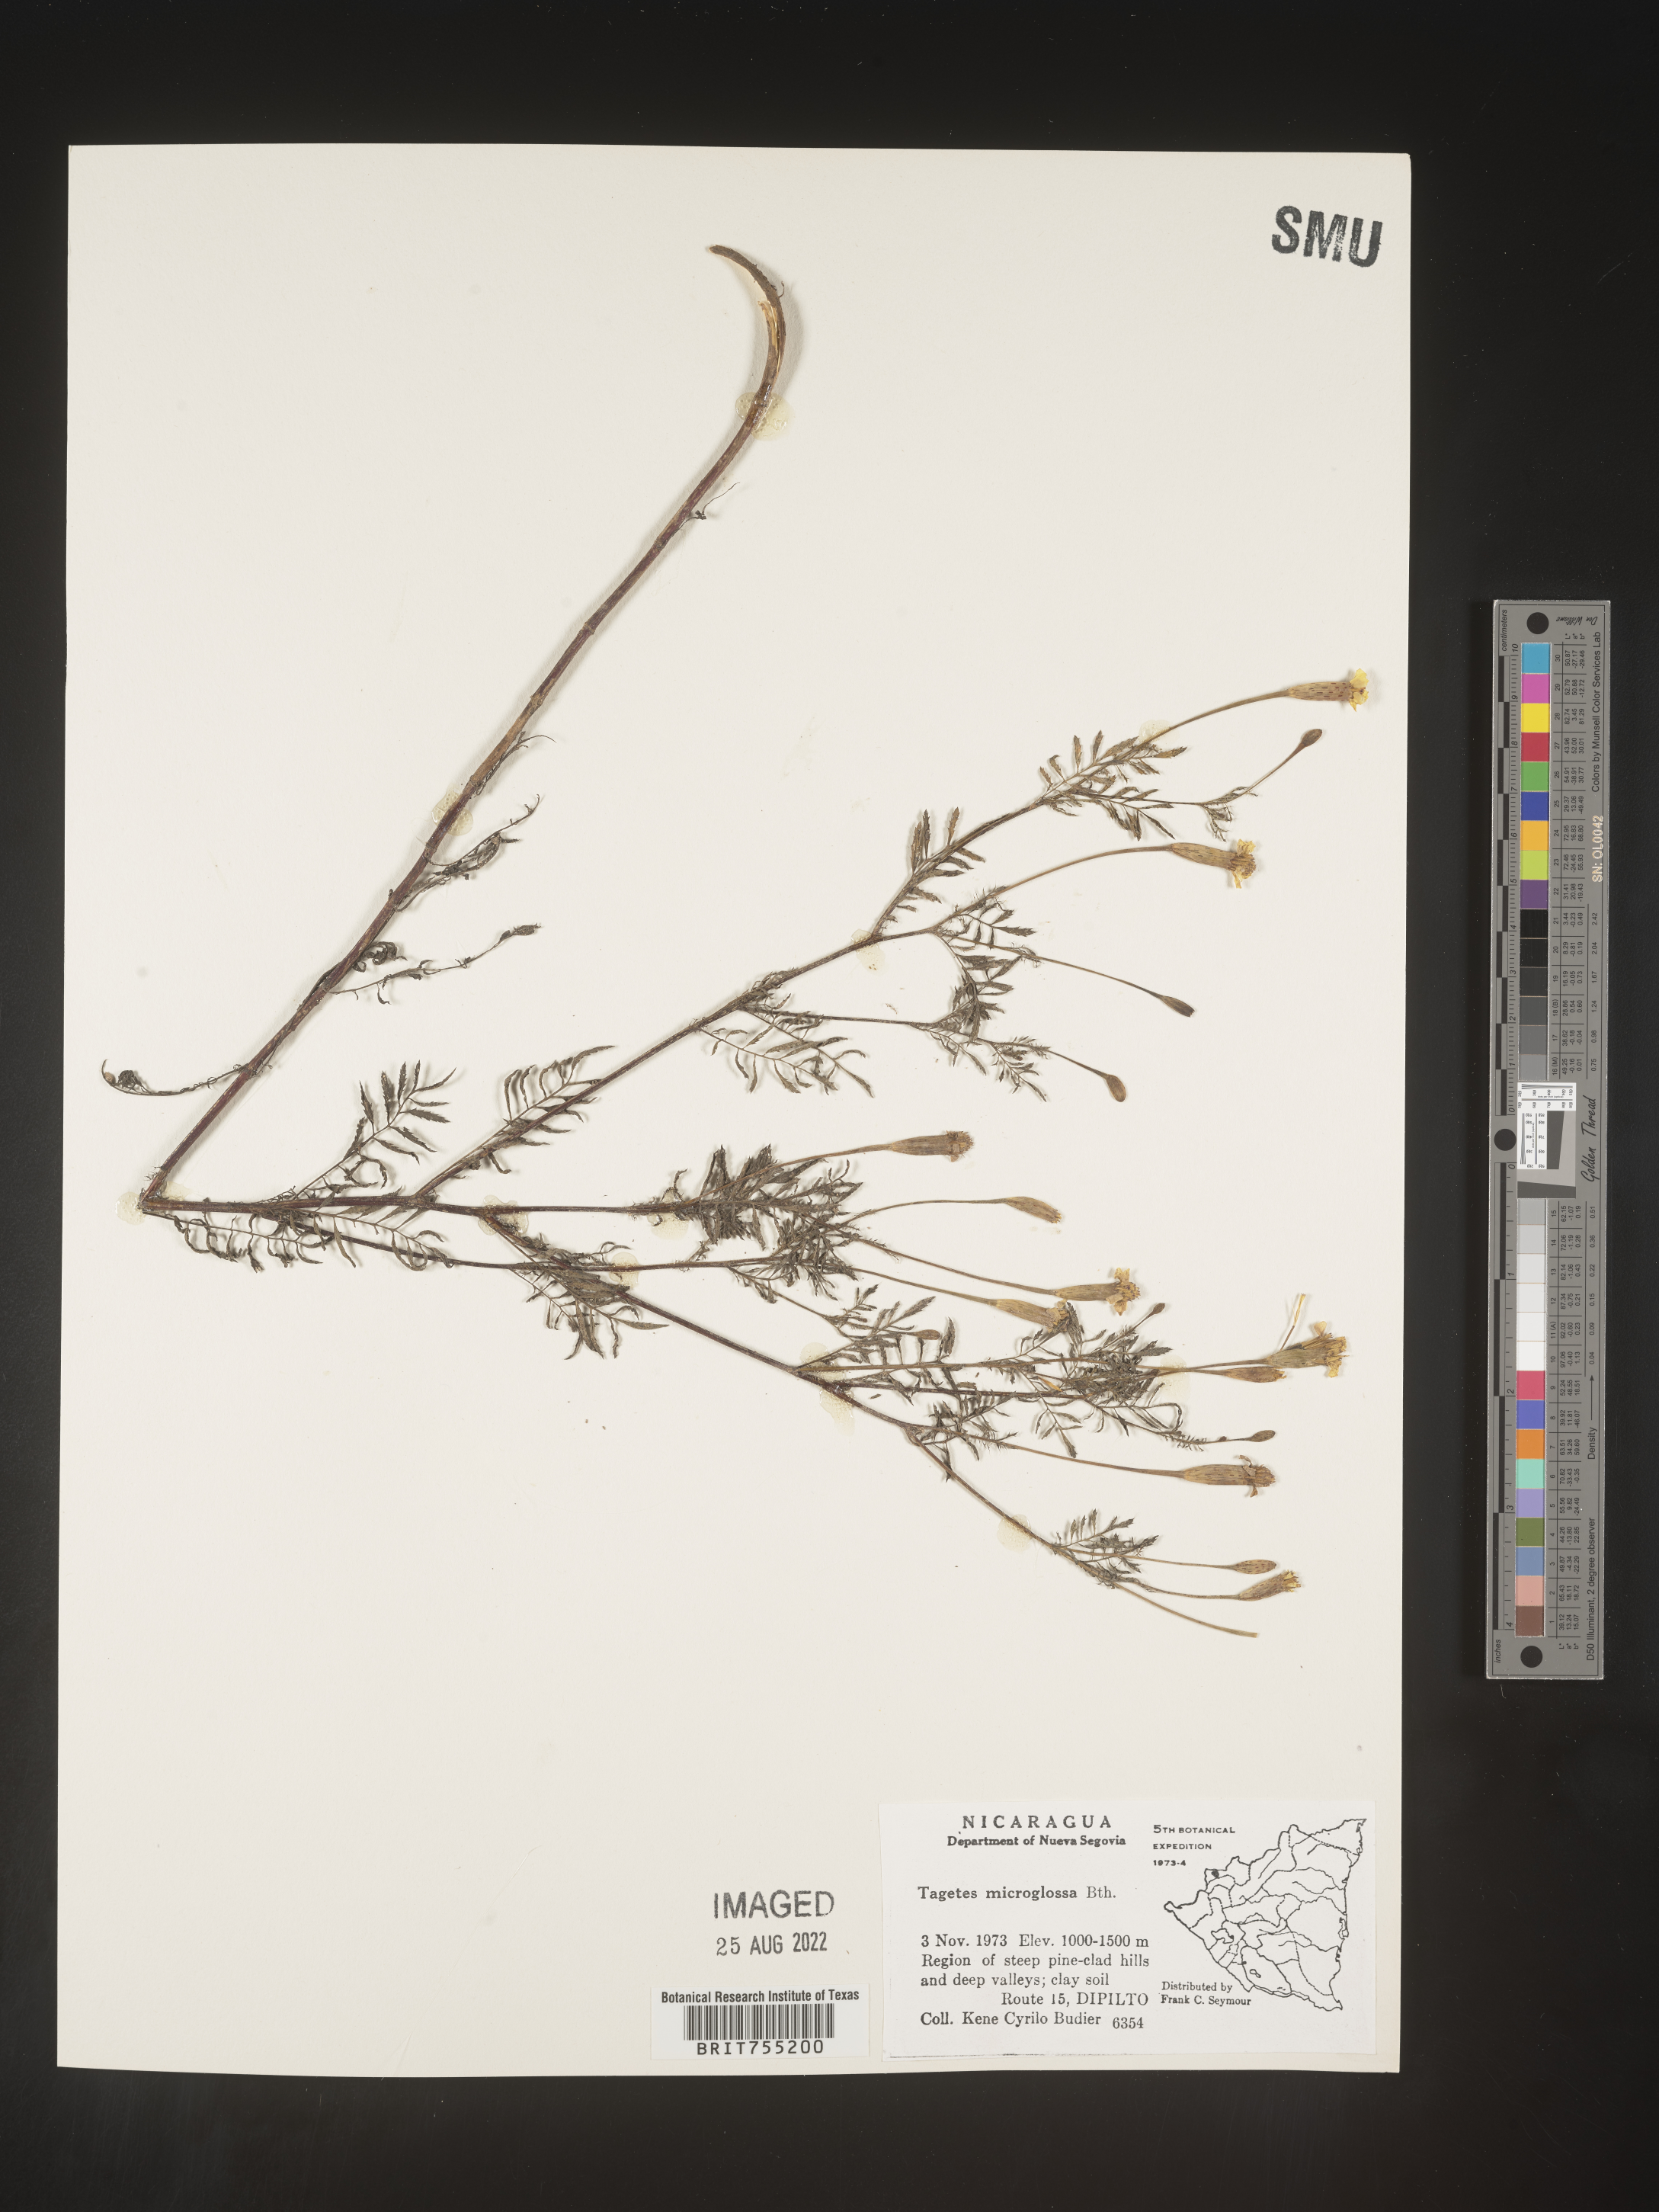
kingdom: Plantae
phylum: Tracheophyta
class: Magnoliopsida
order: Asterales
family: Asteraceae
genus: Tagetes
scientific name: Tagetes
